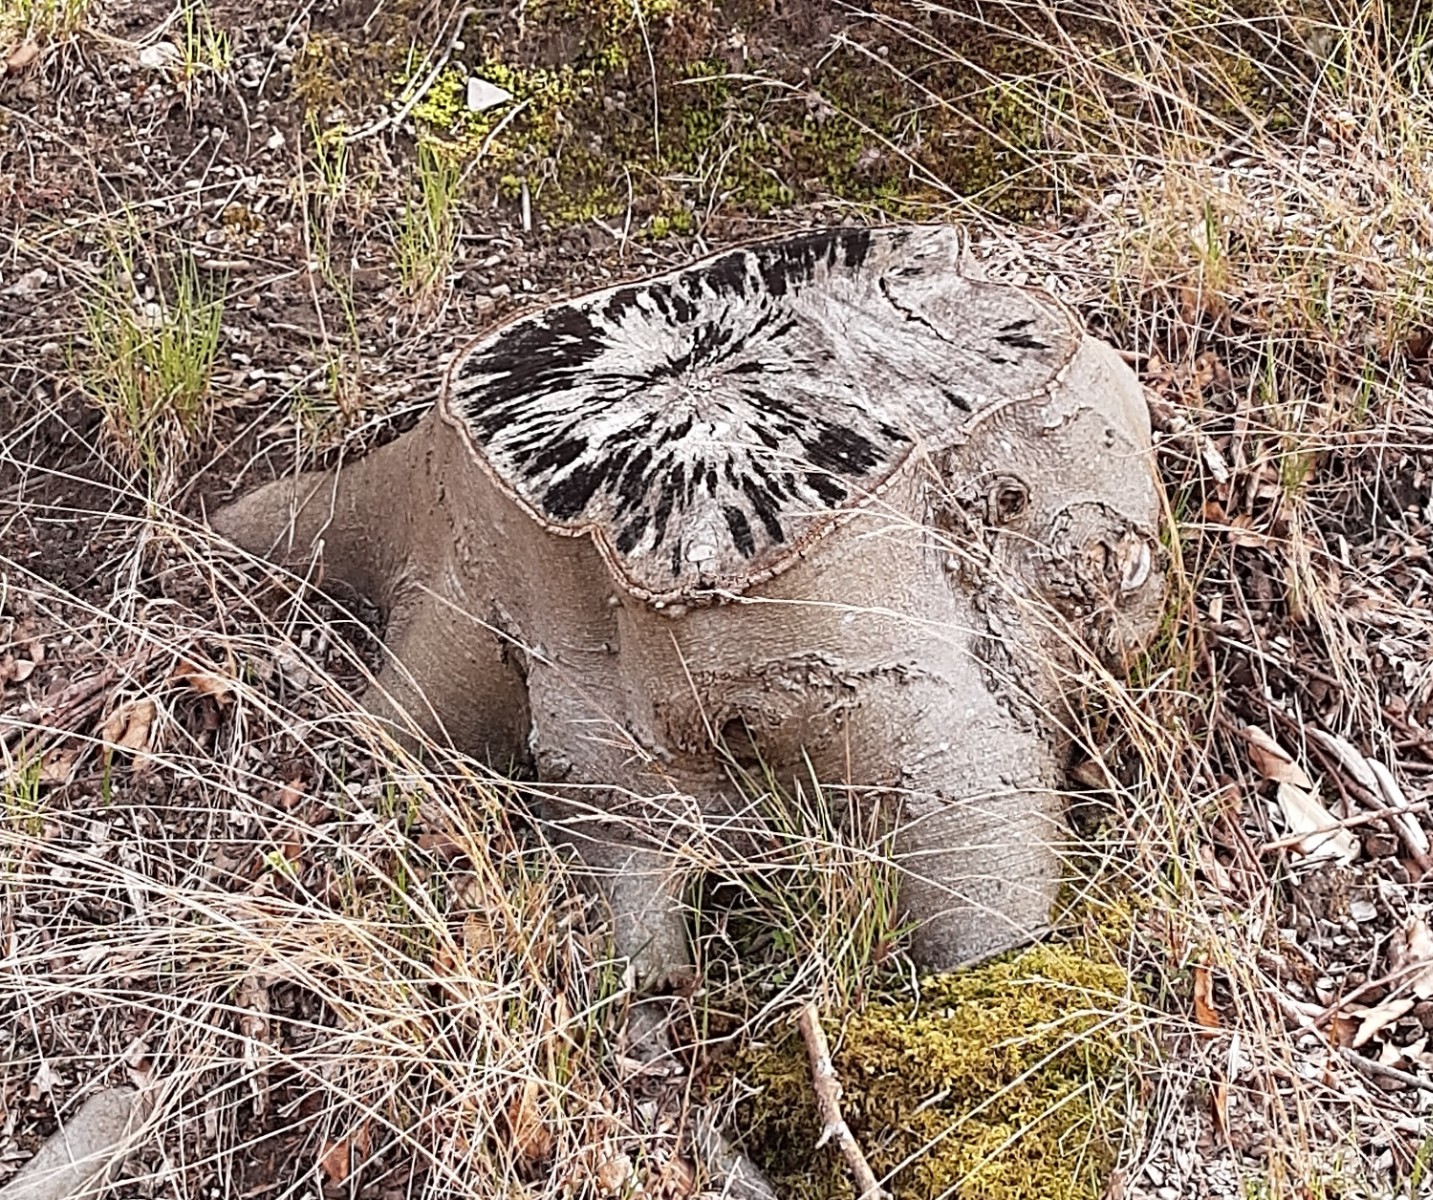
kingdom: Fungi
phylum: Ascomycota
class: Leotiomycetes
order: Helotiales
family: Helotiaceae
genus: Bispora
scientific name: Bispora pallescens
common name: måtte-snitskive
